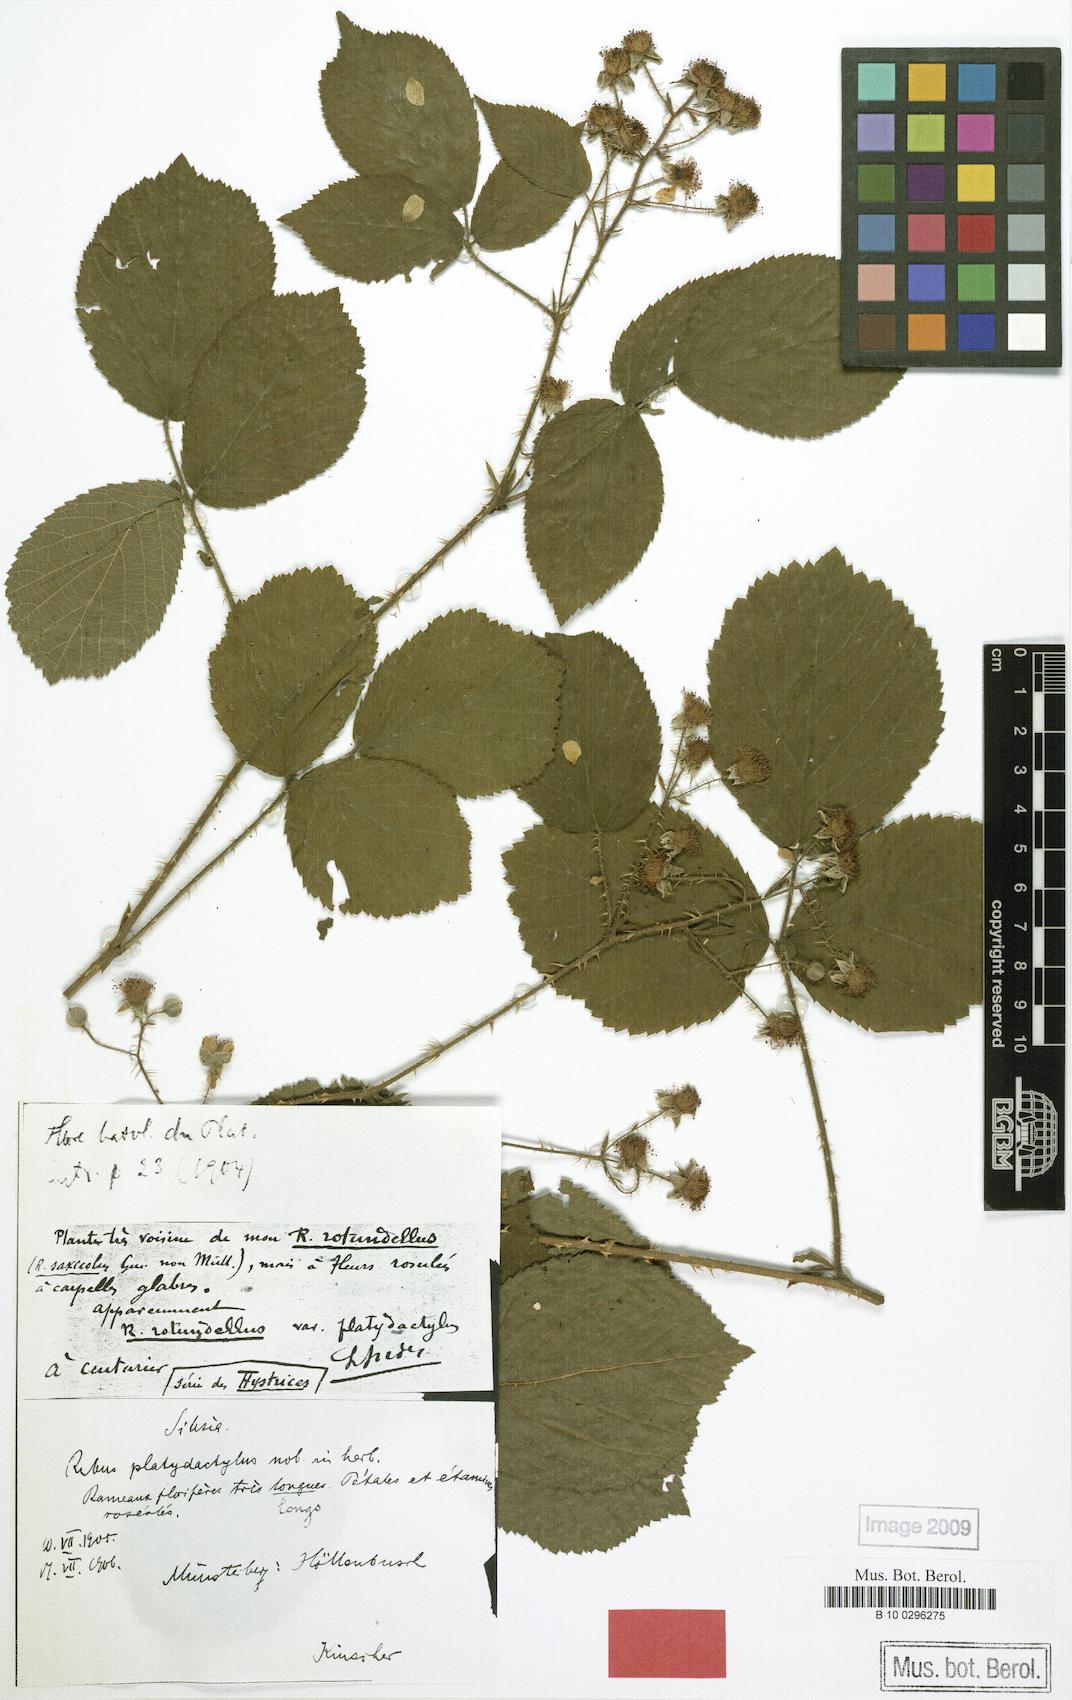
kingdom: Plantae
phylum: Tracheophyta
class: Magnoliopsida
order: Rosales
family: Rosaceae
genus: Rubus
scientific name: Rubus platydactylus
